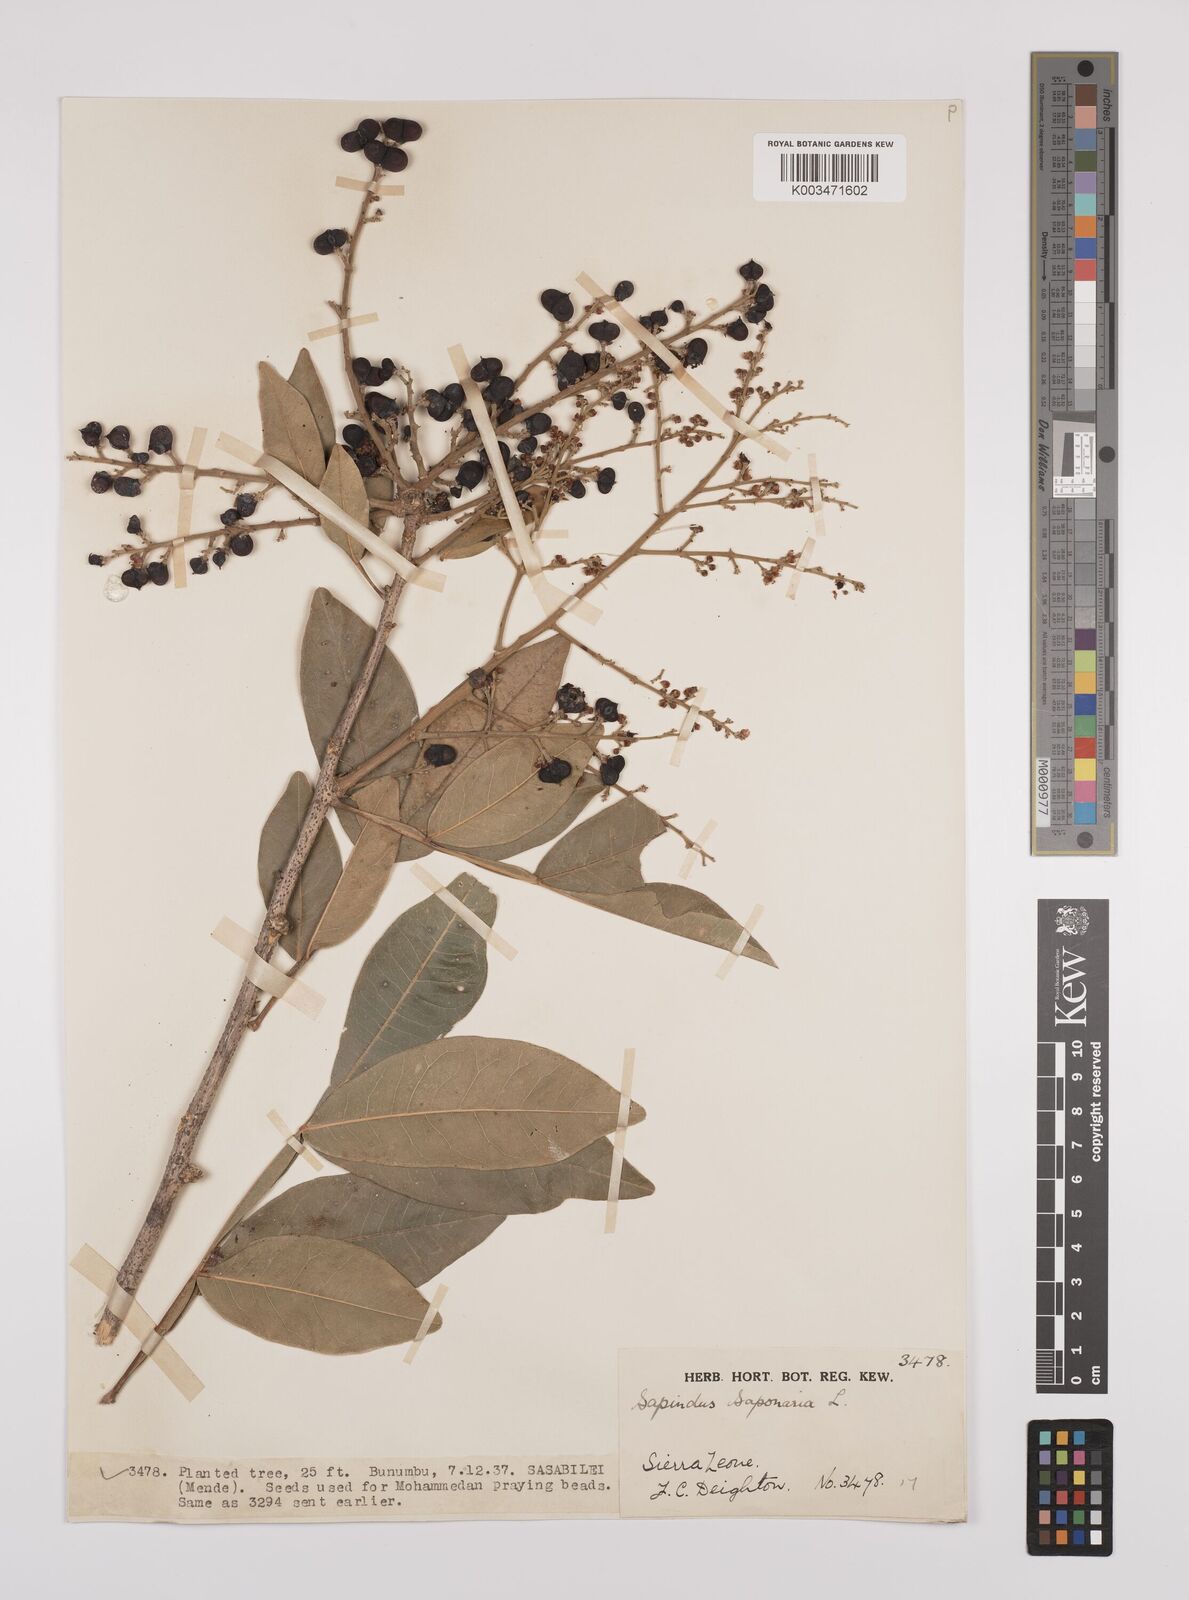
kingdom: Plantae
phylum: Tracheophyta
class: Magnoliopsida
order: Sapindales
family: Sapindaceae
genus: Sapindus
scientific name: Sapindus
